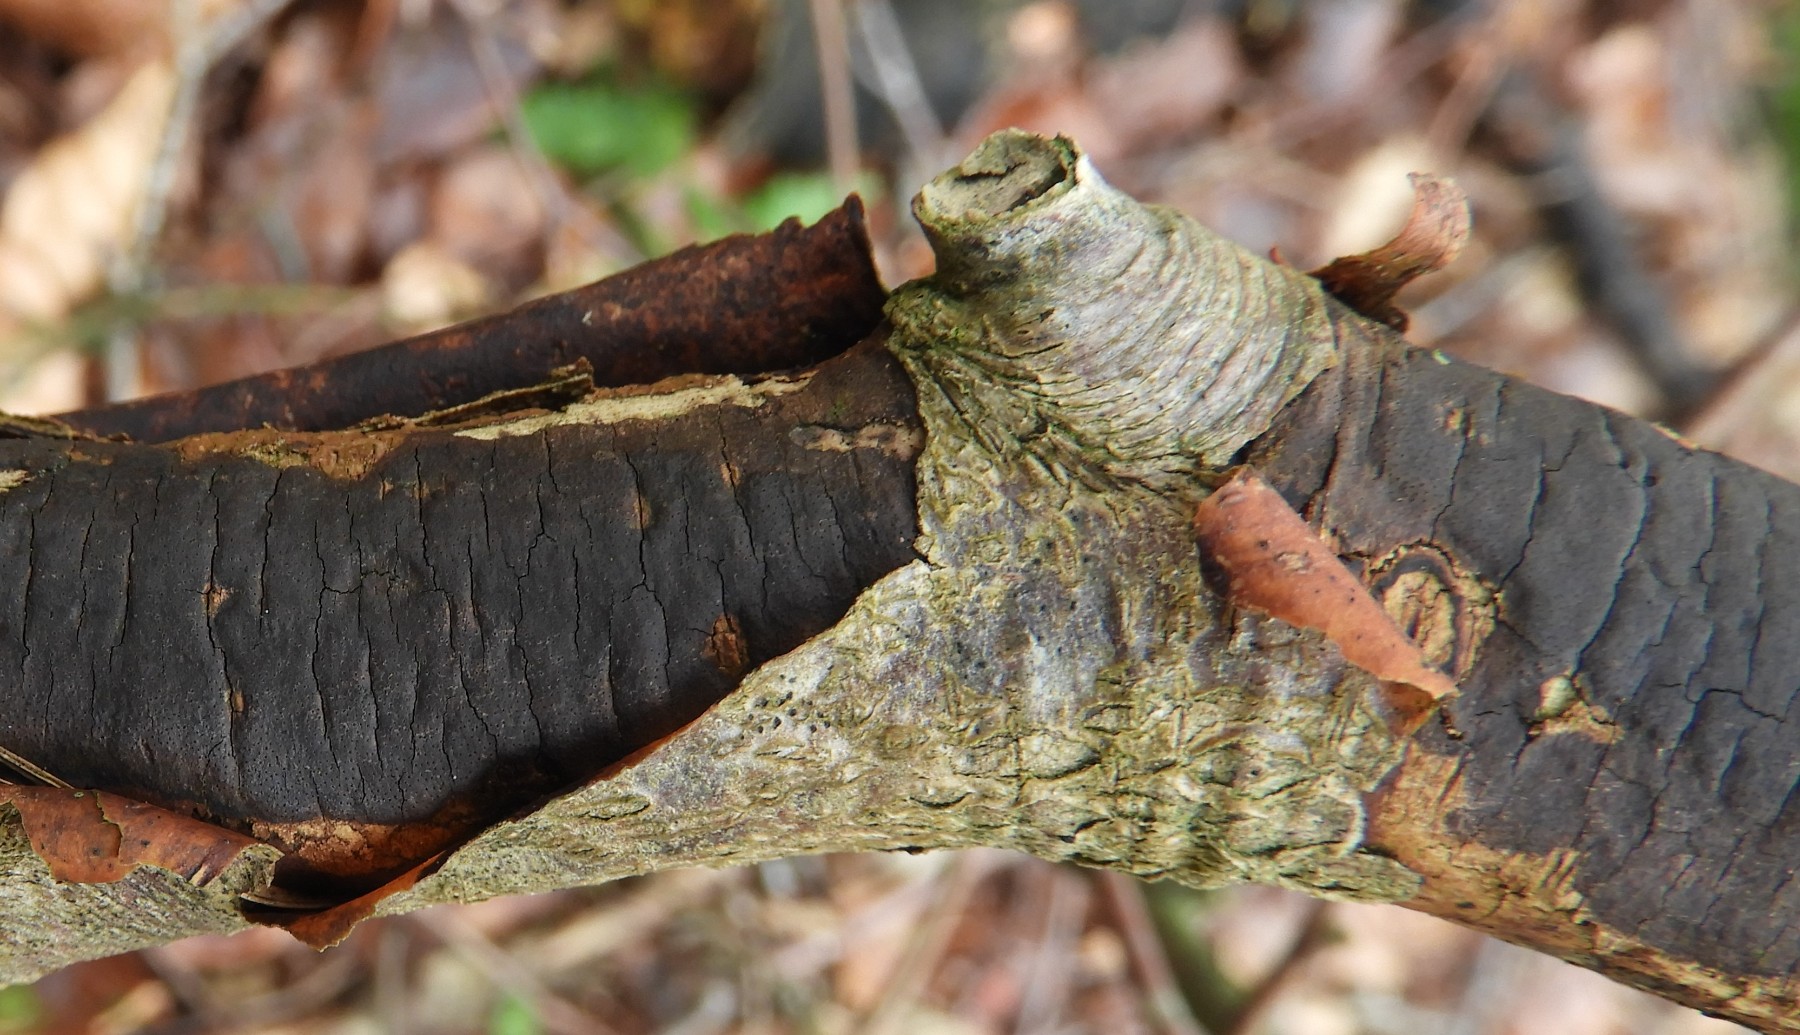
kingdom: Fungi
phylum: Ascomycota
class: Sordariomycetes
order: Xylariales
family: Diatrypaceae
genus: Diatrype
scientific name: Diatrype decorticata
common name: barksprænger-kulskorpe
